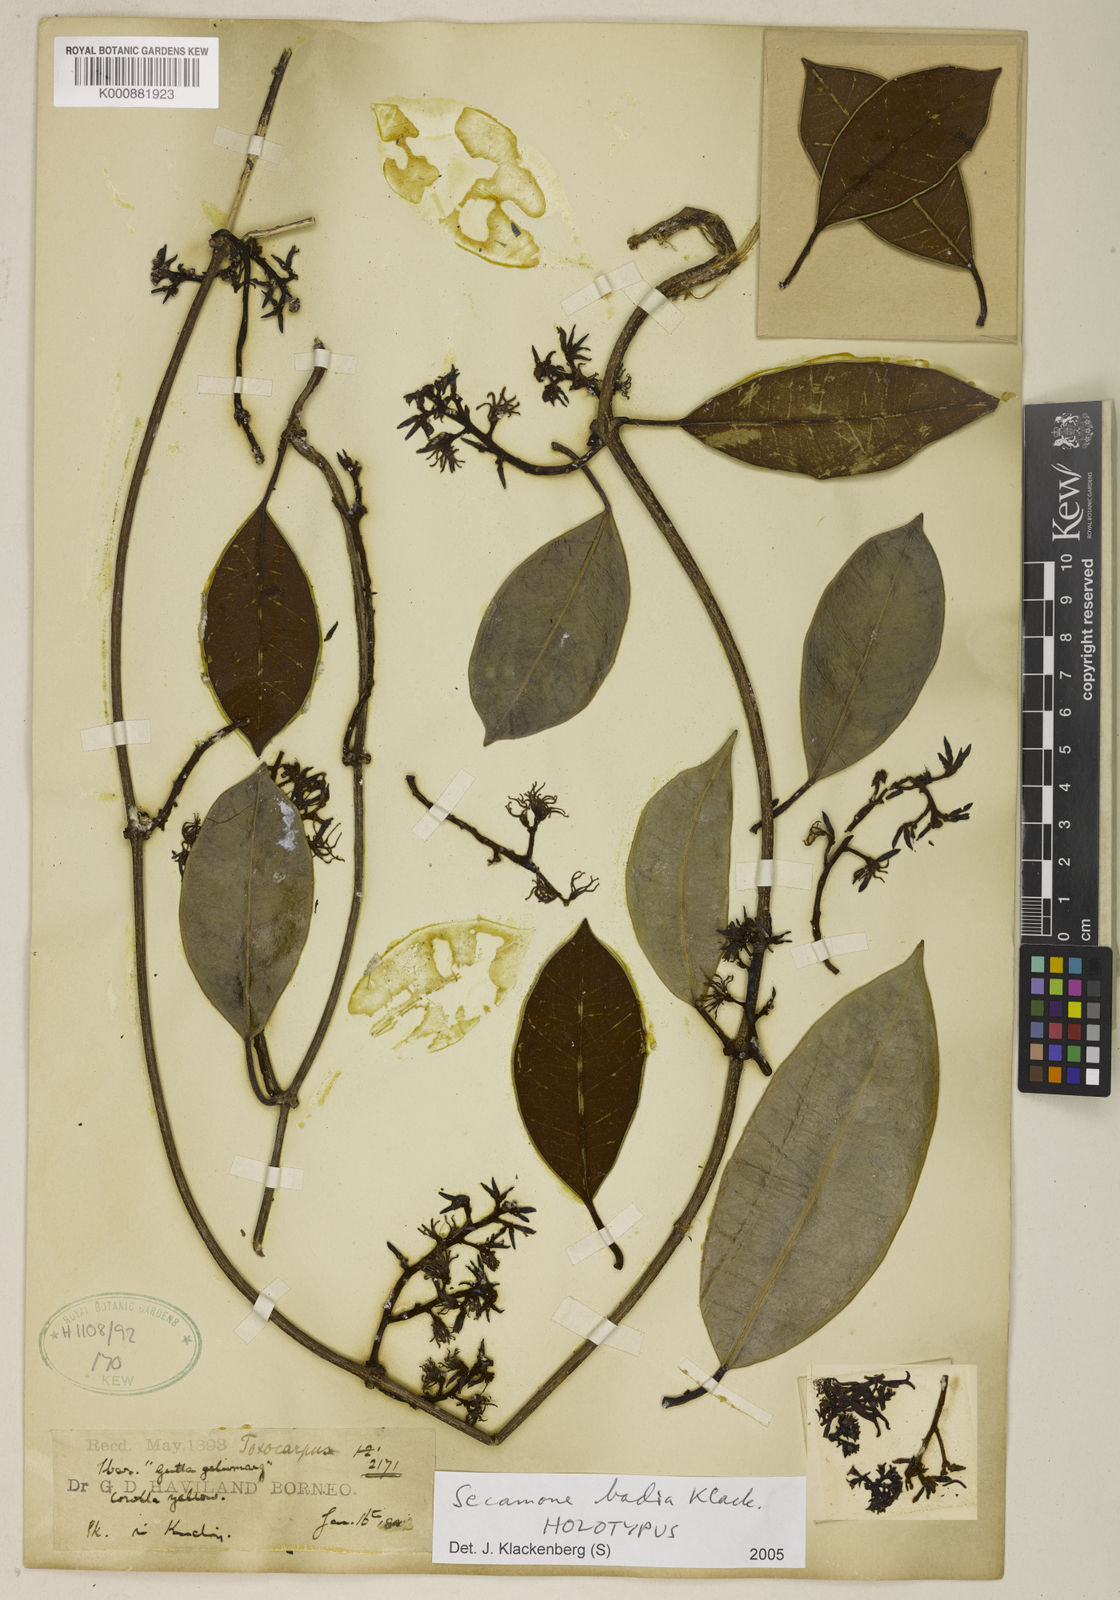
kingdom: Plantae
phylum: Tracheophyta
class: Magnoliopsida
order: Gentianales
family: Apocynaceae
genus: Secamone
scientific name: Secamone badia
